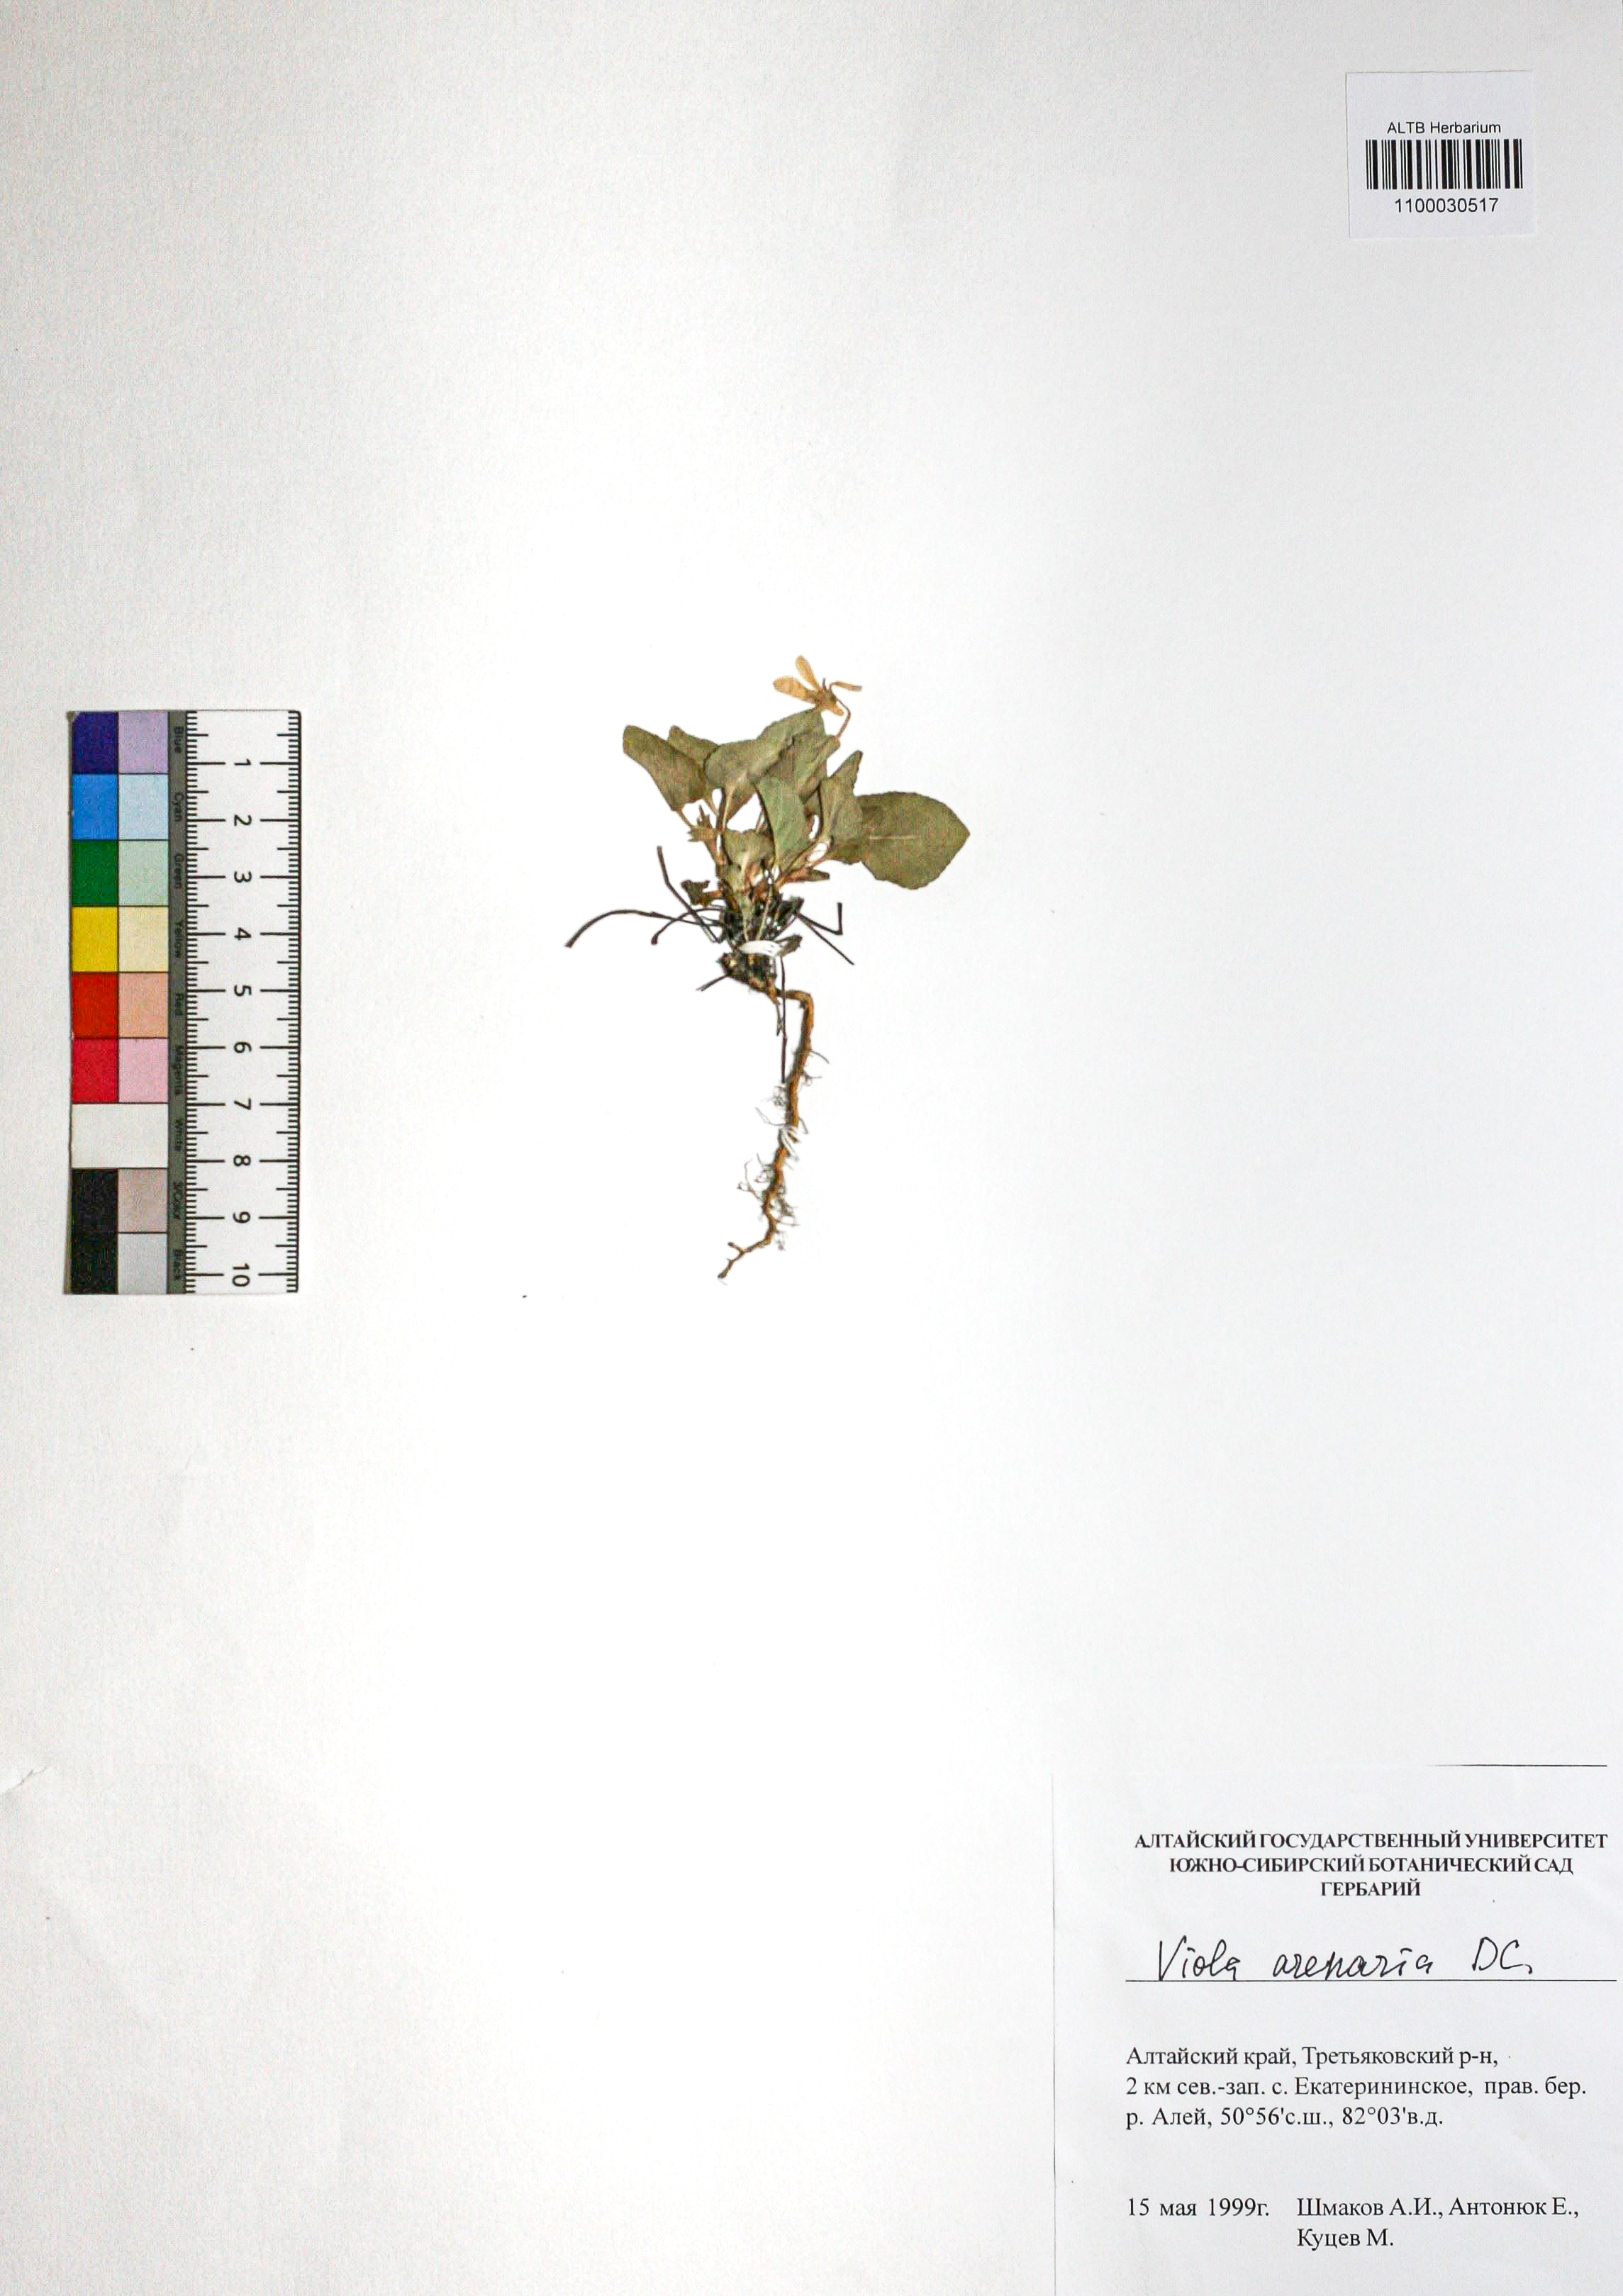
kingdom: Plantae
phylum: Tracheophyta
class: Magnoliopsida
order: Malpighiales
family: Violaceae
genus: Viola
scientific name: Viola rupestris
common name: Teesdale violet
